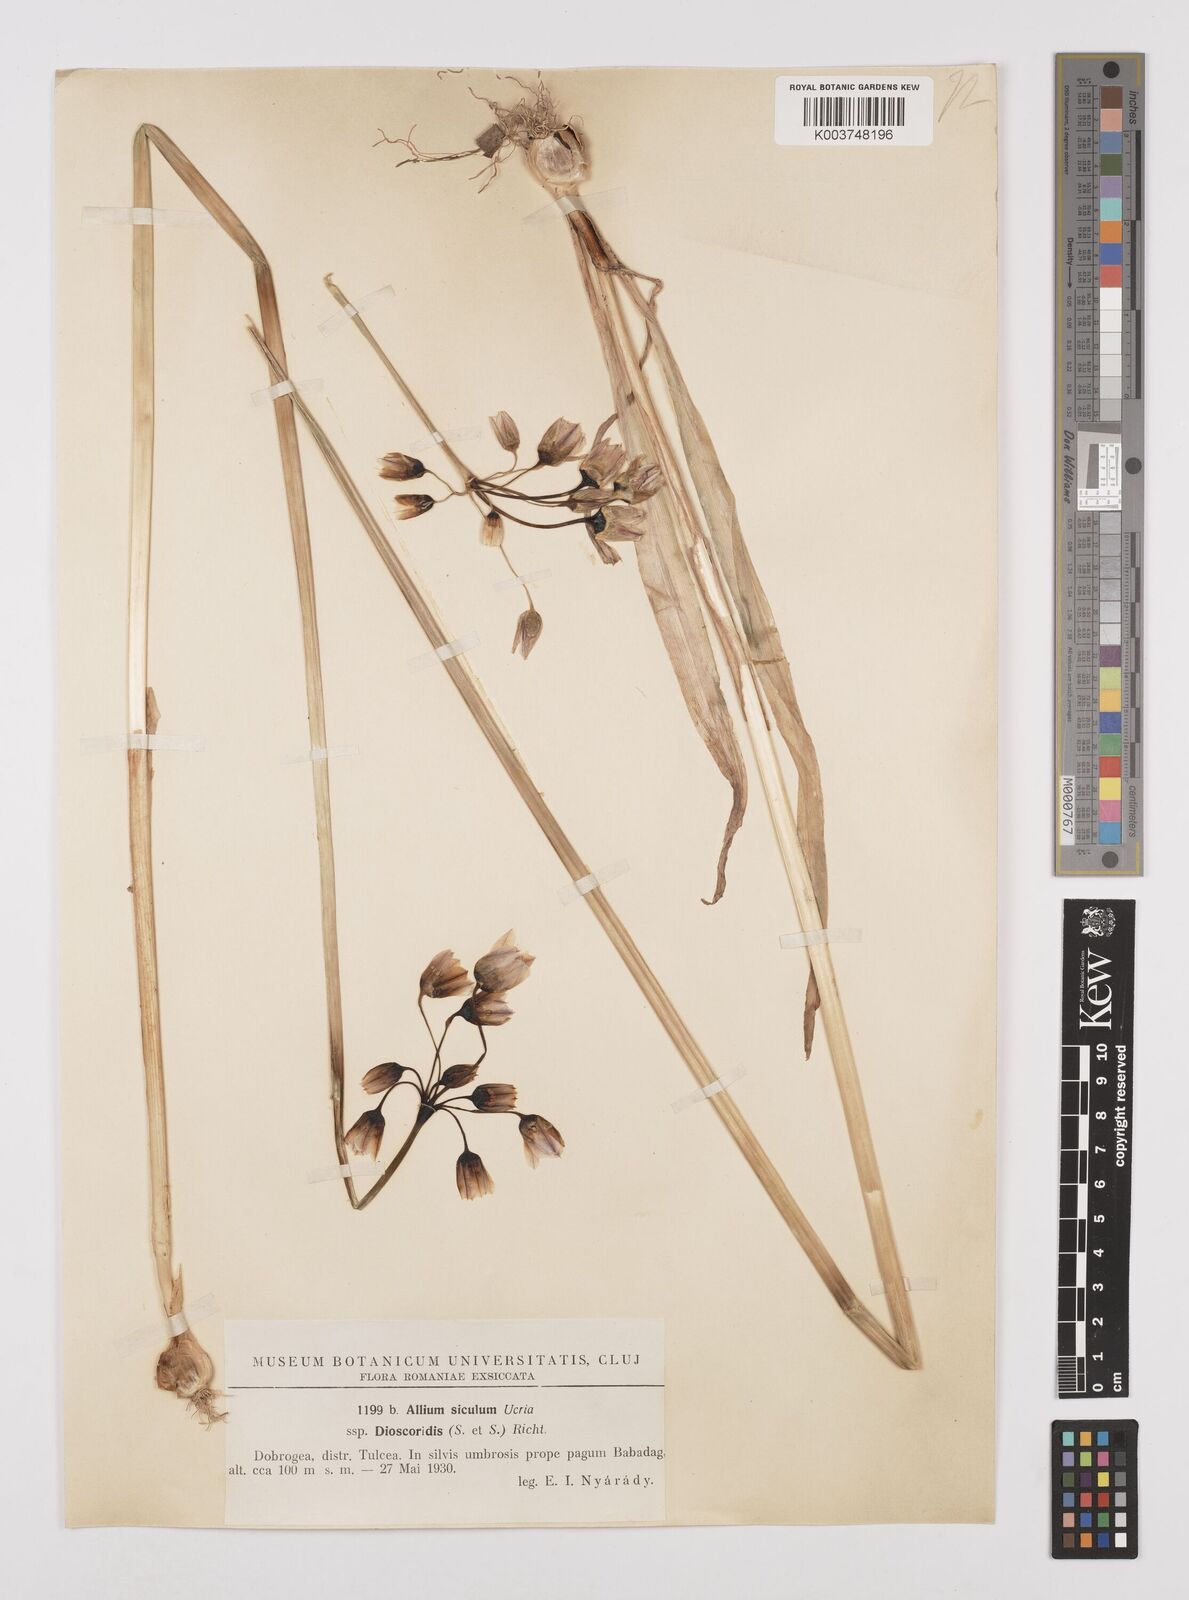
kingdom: Plantae
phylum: Tracheophyta
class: Liliopsida
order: Asparagales
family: Amaryllidaceae
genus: Allium
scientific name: Allium siculum
